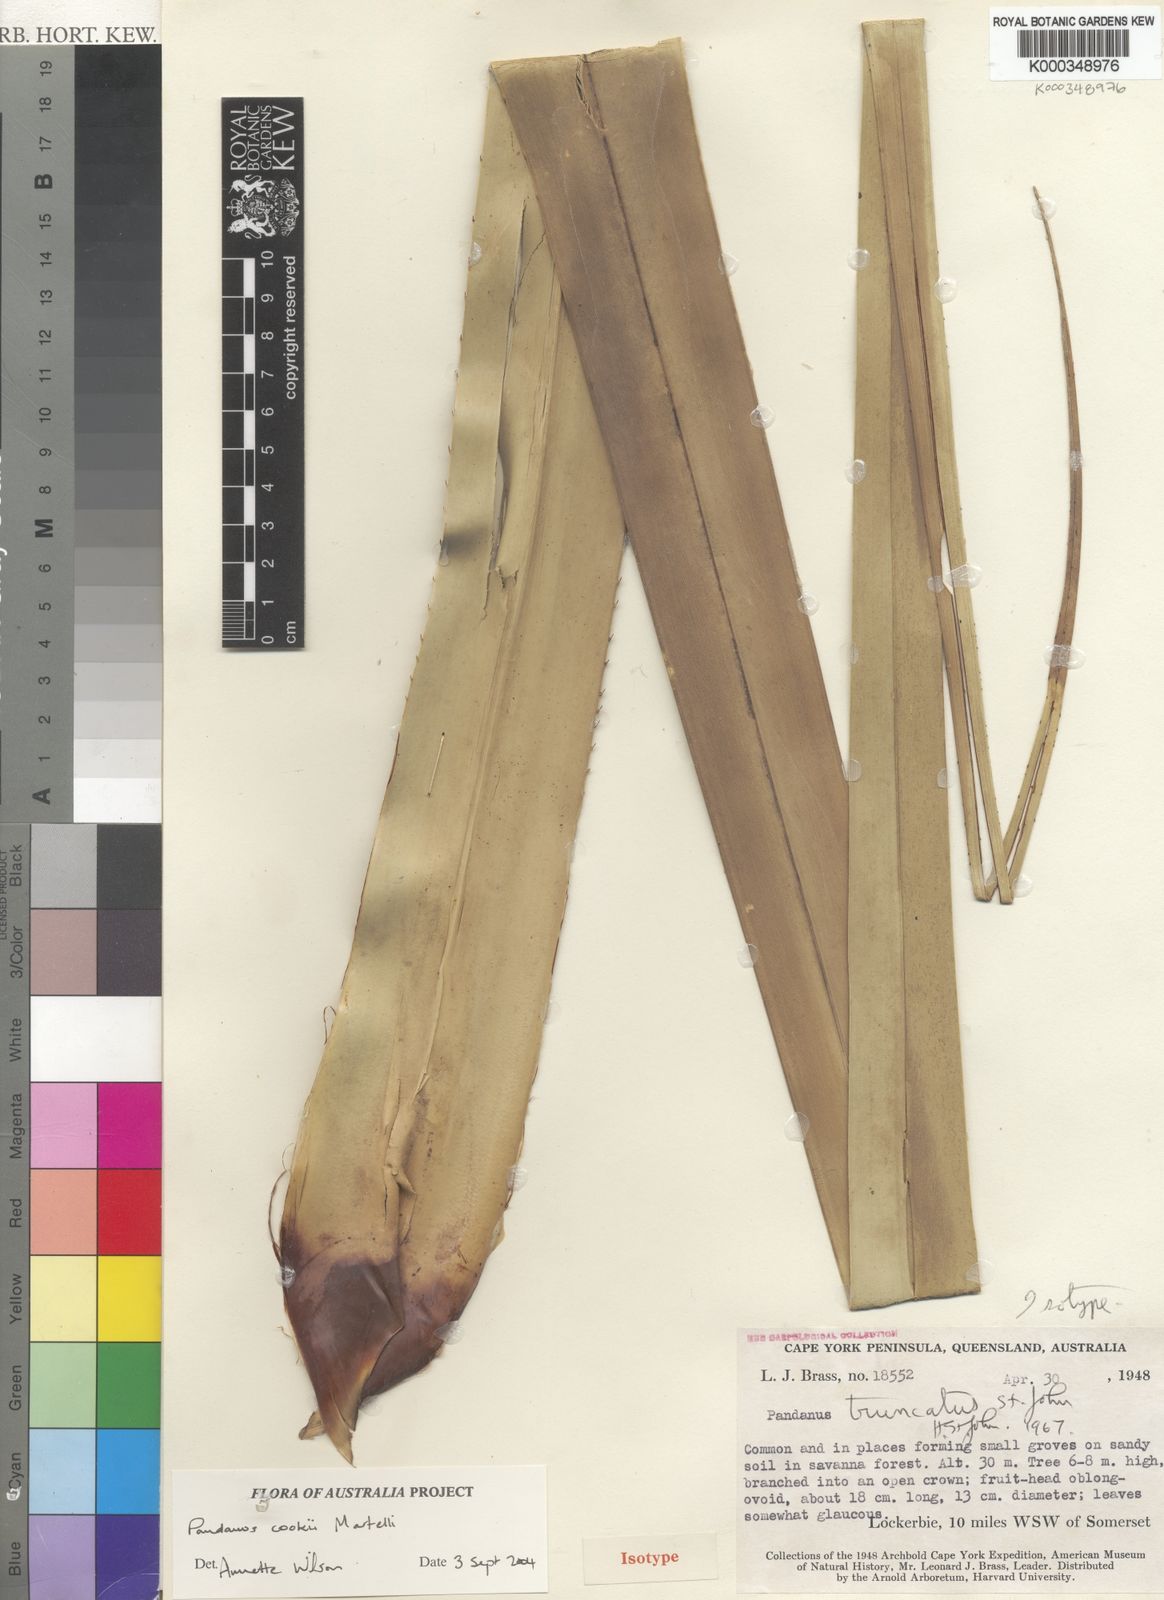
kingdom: Plantae
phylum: Tracheophyta
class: Liliopsida
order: Pandanales
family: Pandanaceae
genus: Pandanus
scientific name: Pandanus cookii
